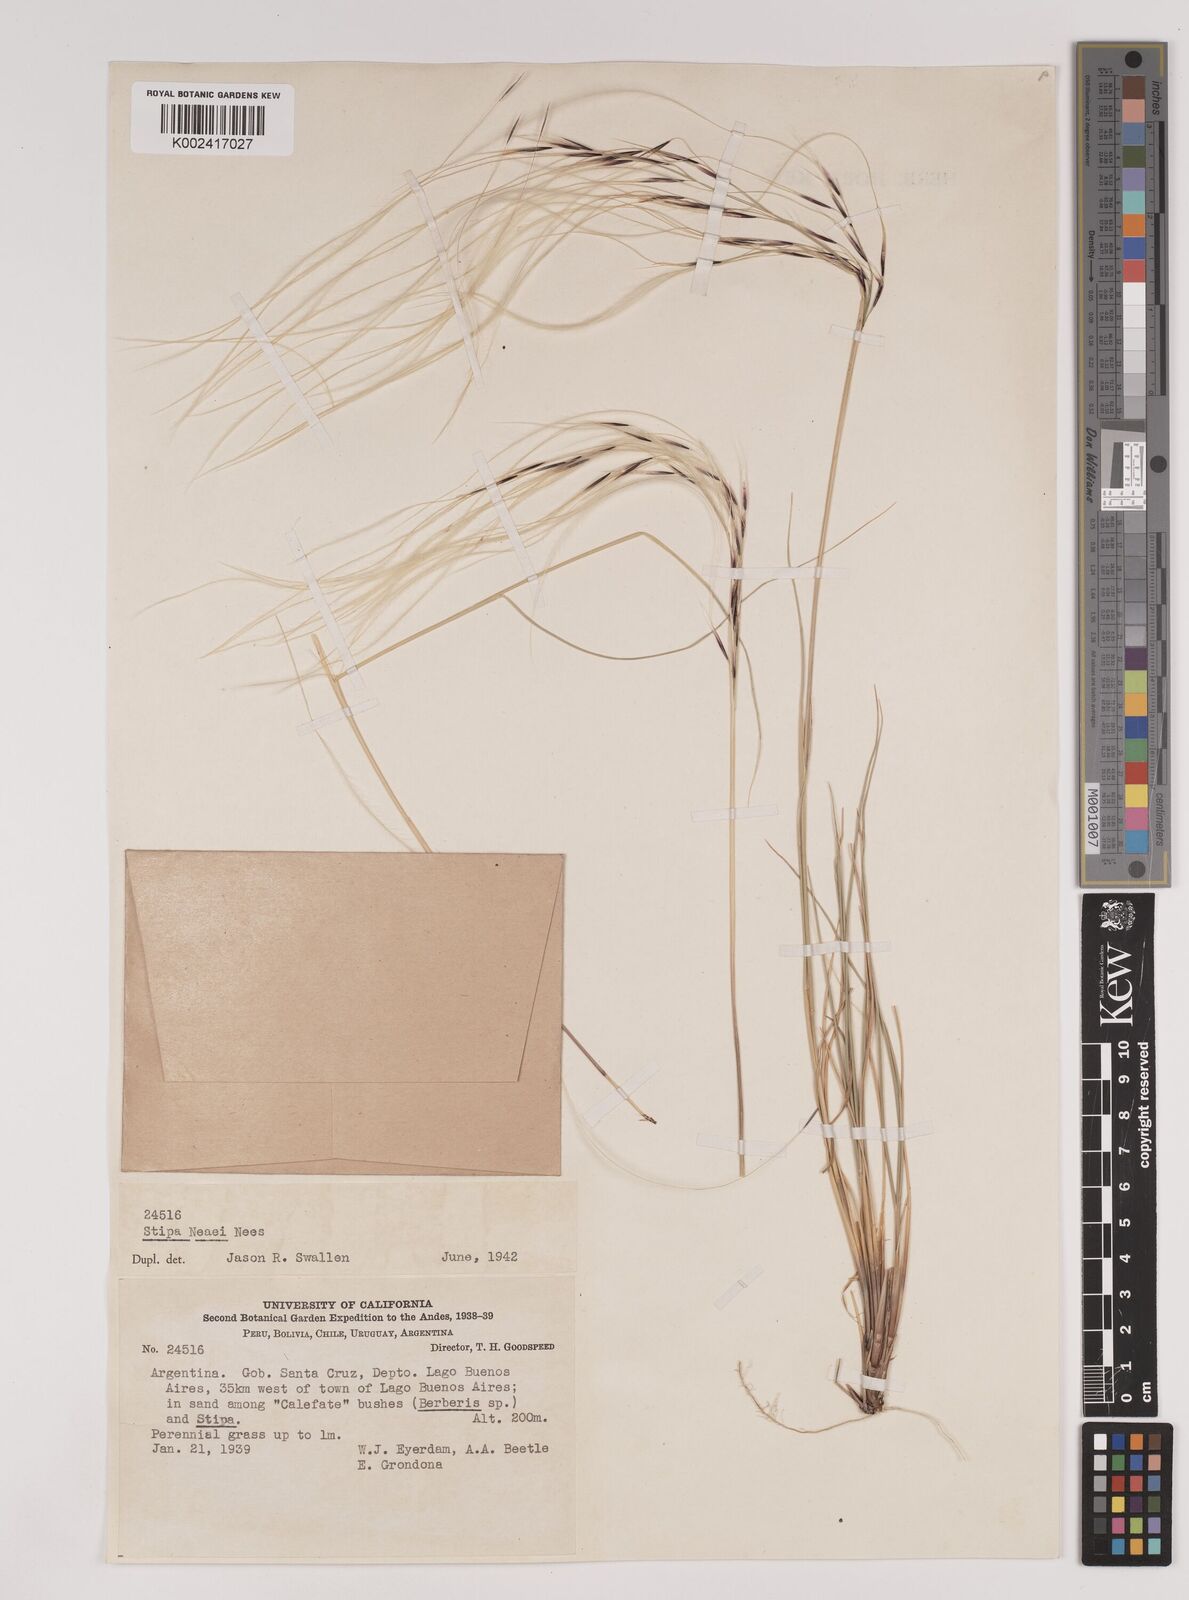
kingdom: Plantae
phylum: Tracheophyta
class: Liliopsida
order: Poales
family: Poaceae
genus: Stipa
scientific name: Stipa neaei
